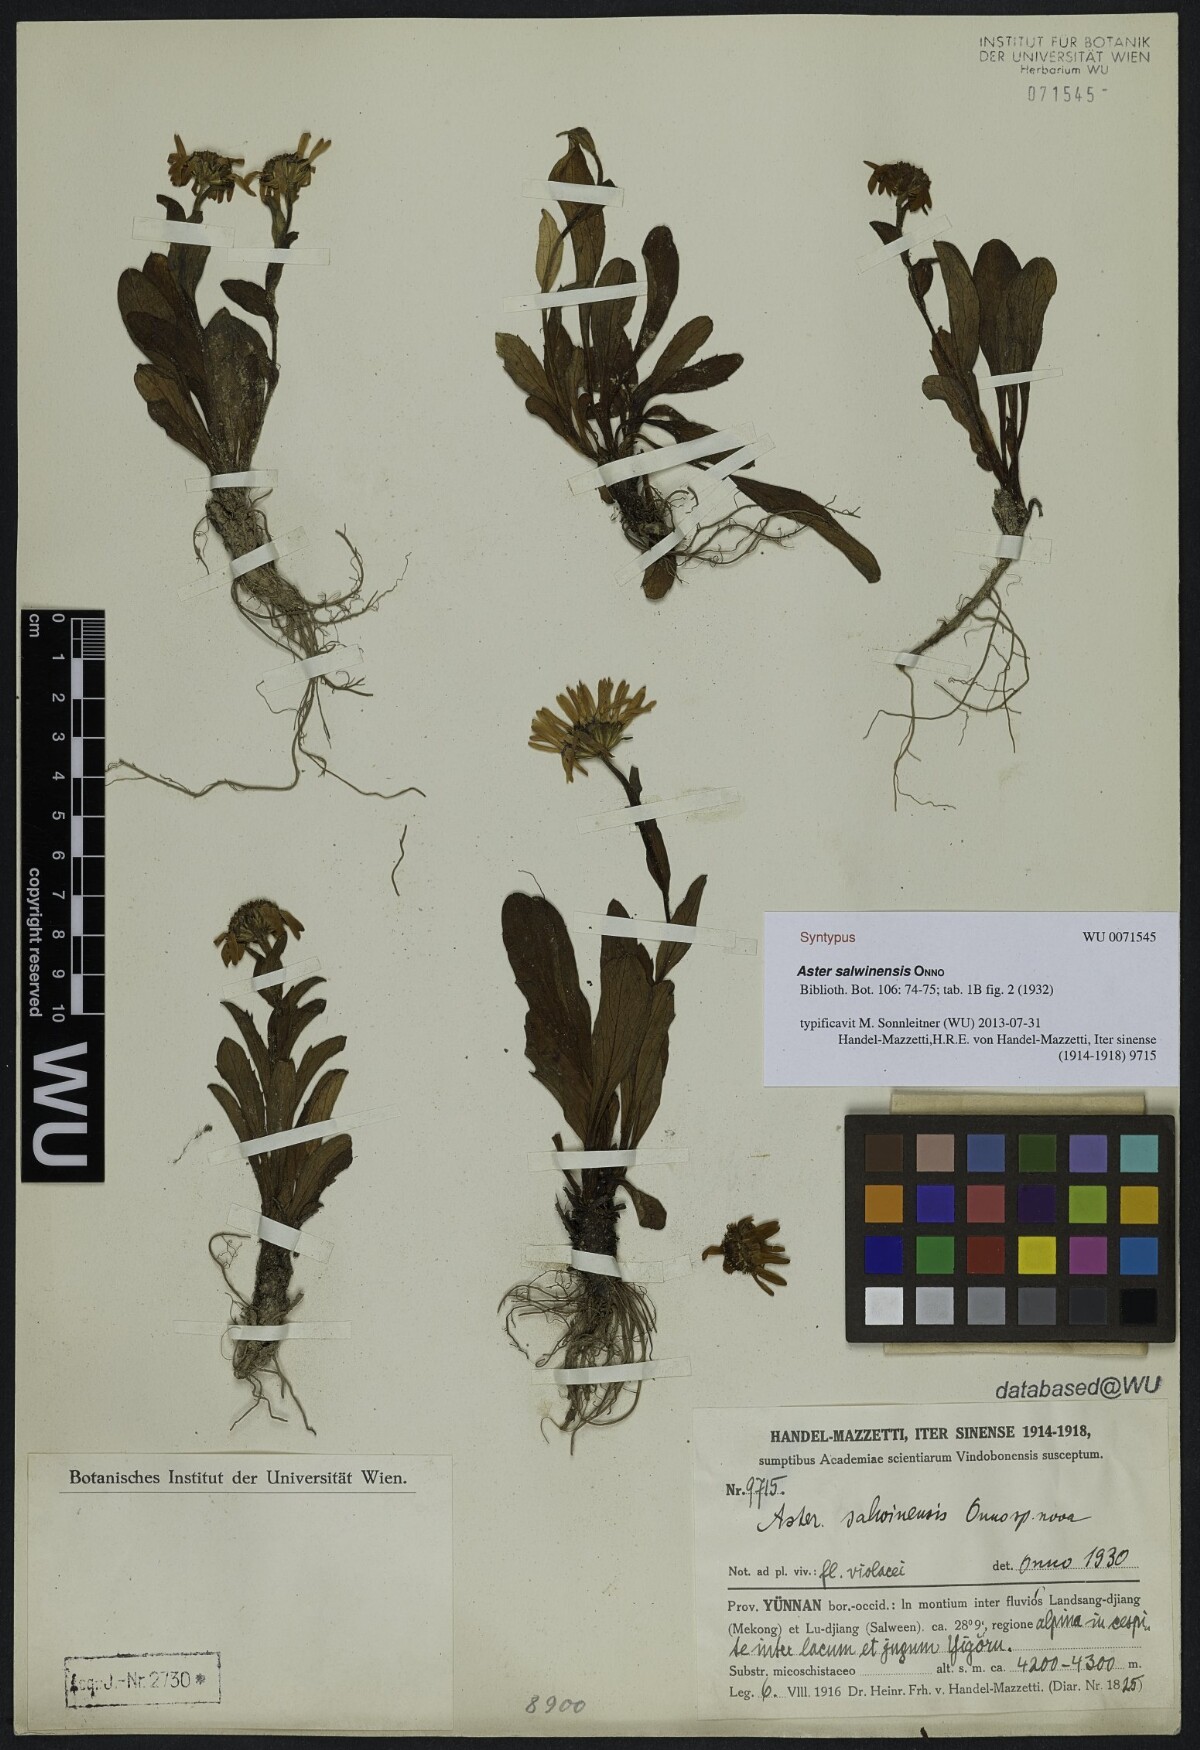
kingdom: Plantae
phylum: Tracheophyta
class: Magnoliopsida
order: Asterales
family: Asteraceae
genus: Tibetiodes
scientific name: Tibetiodes salwinensis
